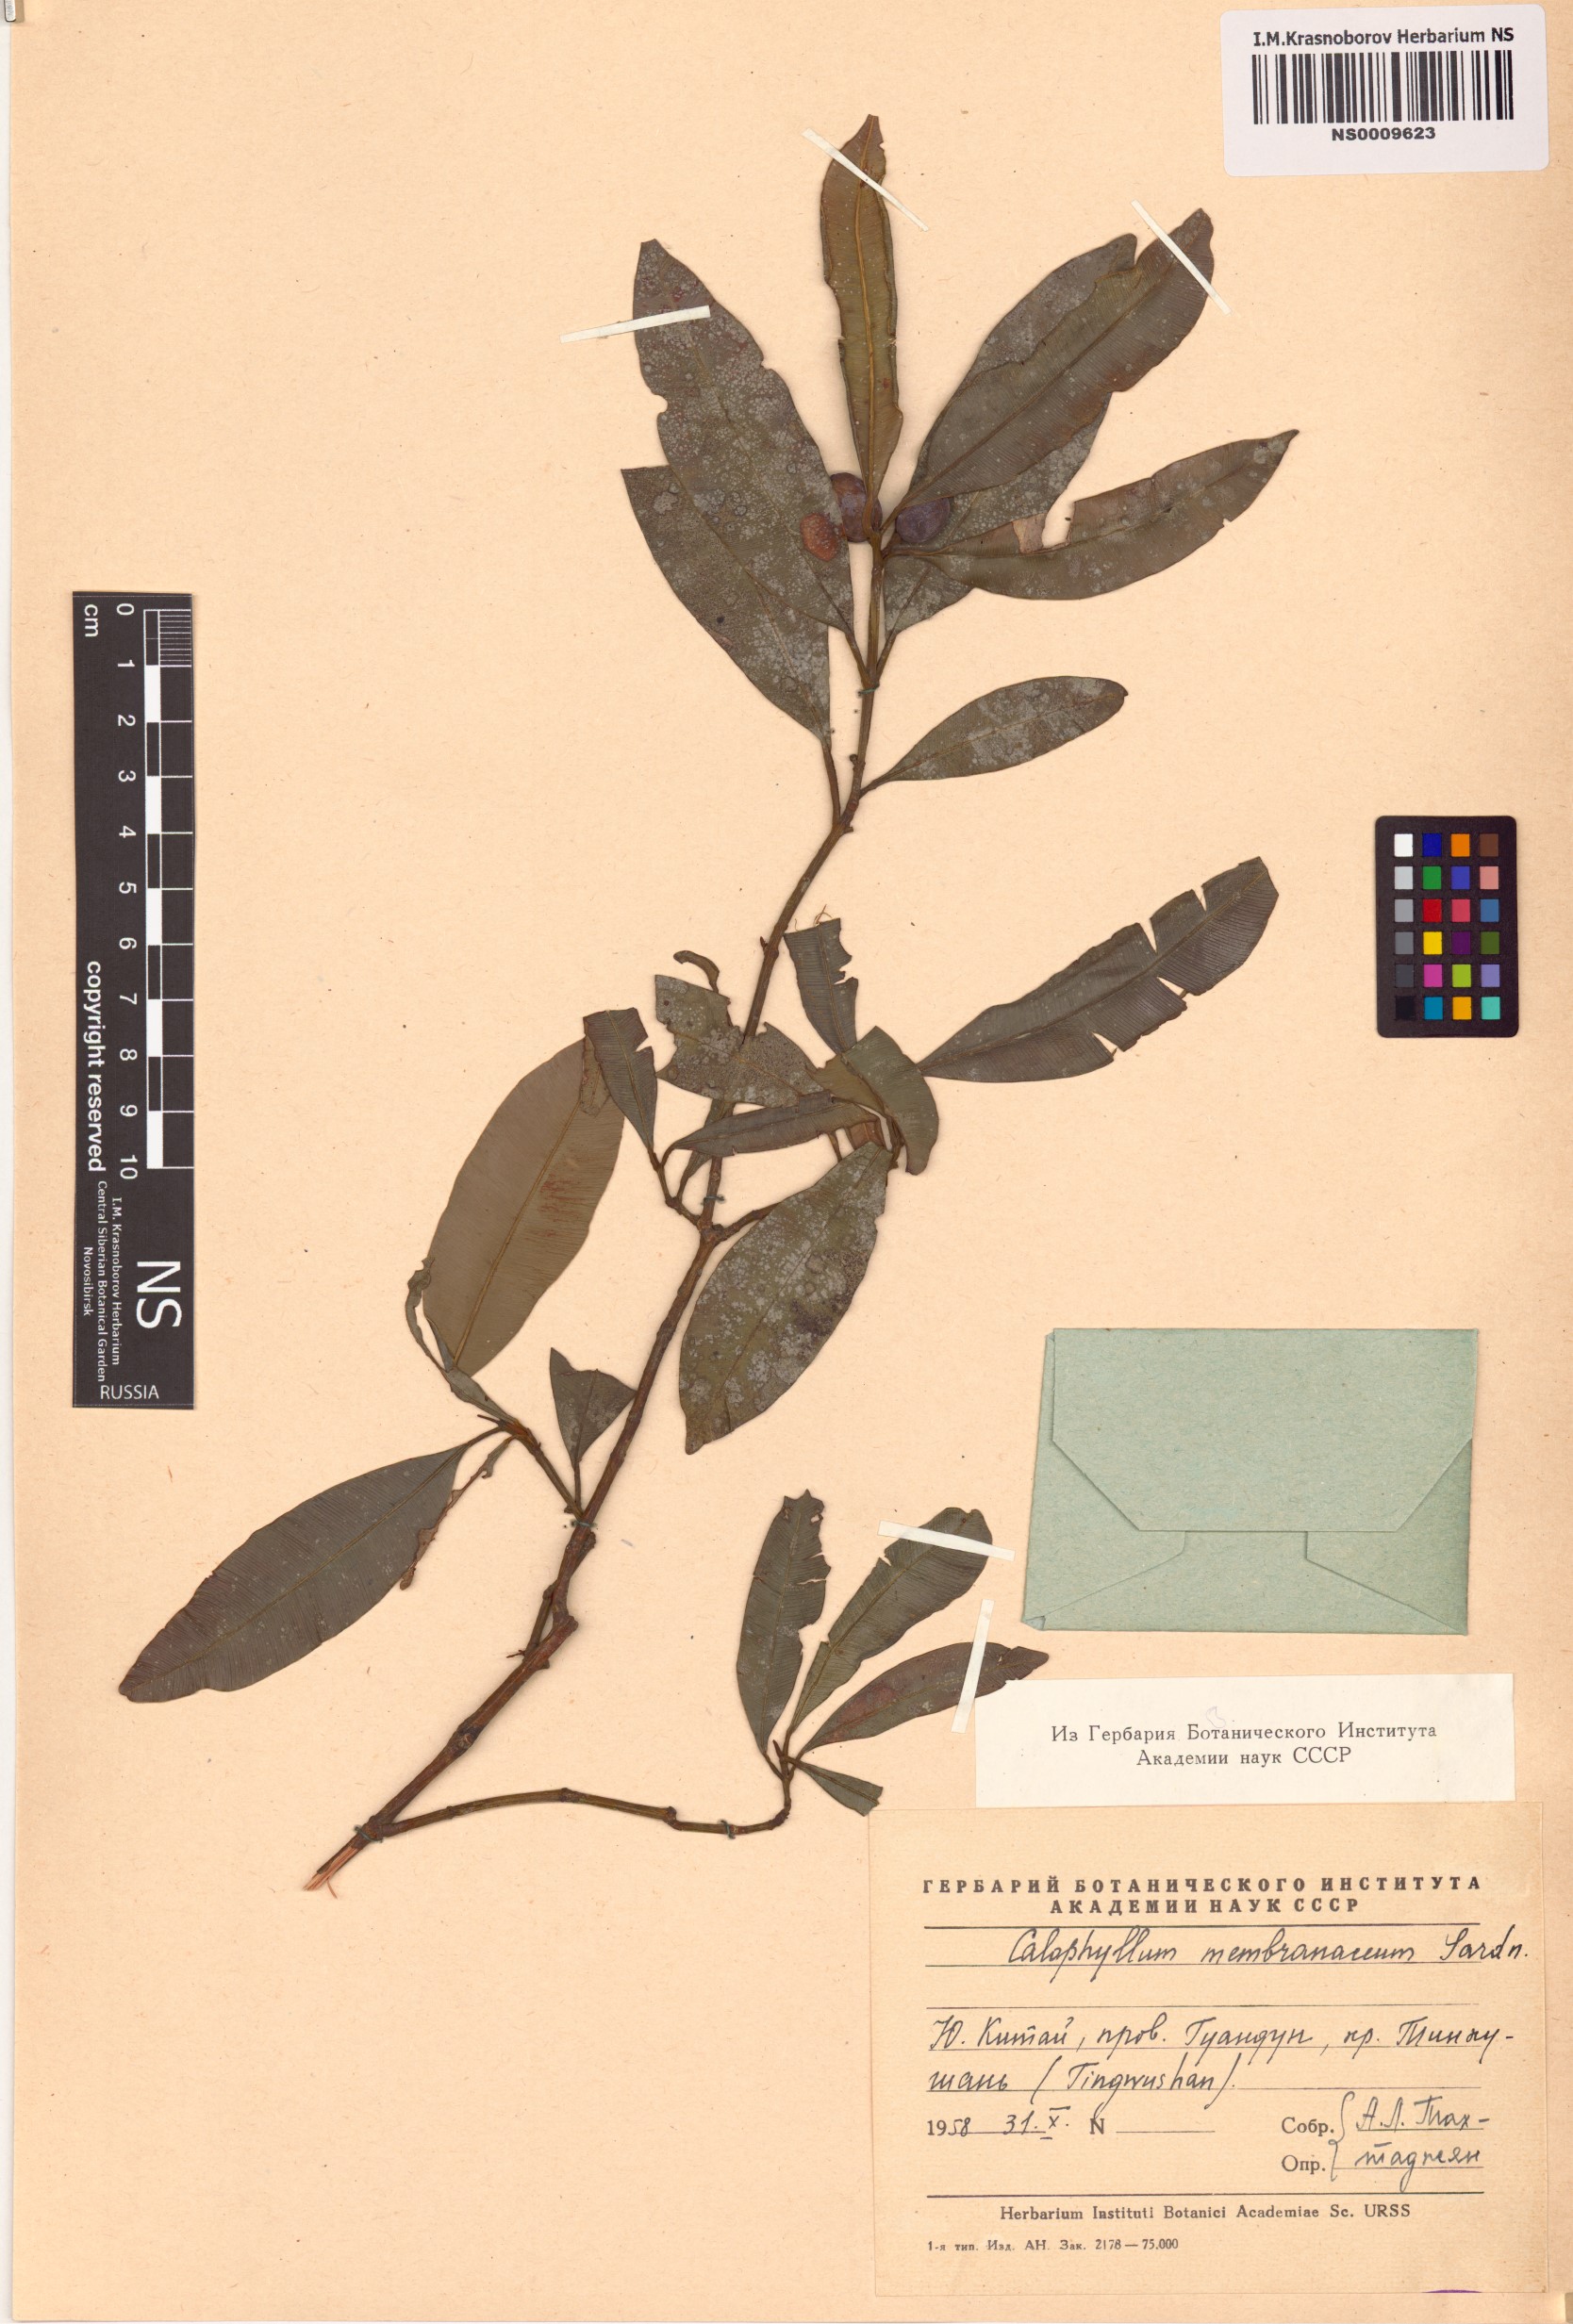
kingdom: Plantae
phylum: Tracheophyta
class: Magnoliopsida
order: Malpighiales
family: Calophyllaceae
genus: Calophyllum
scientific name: Calophyllum membranaceum
